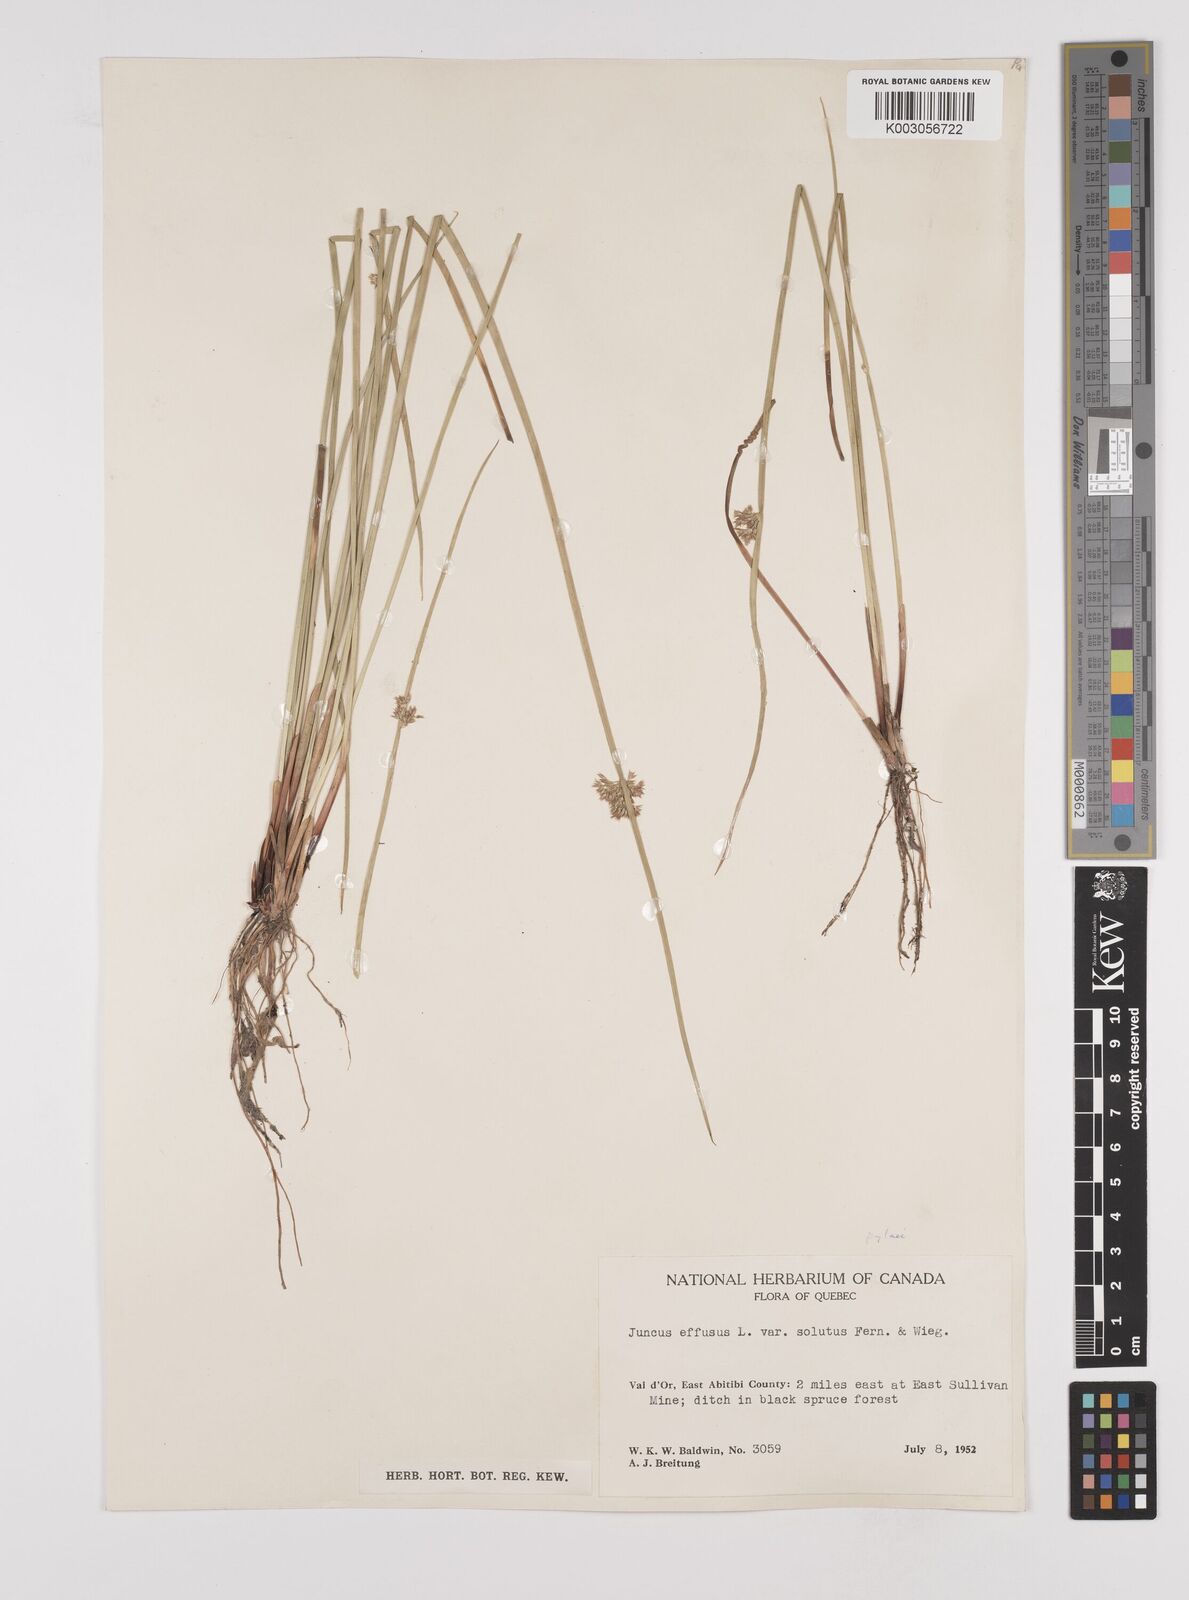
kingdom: Plantae
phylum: Tracheophyta
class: Liliopsida
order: Poales
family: Juncaceae
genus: Juncus
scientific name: Juncus pylaei
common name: Common rush
